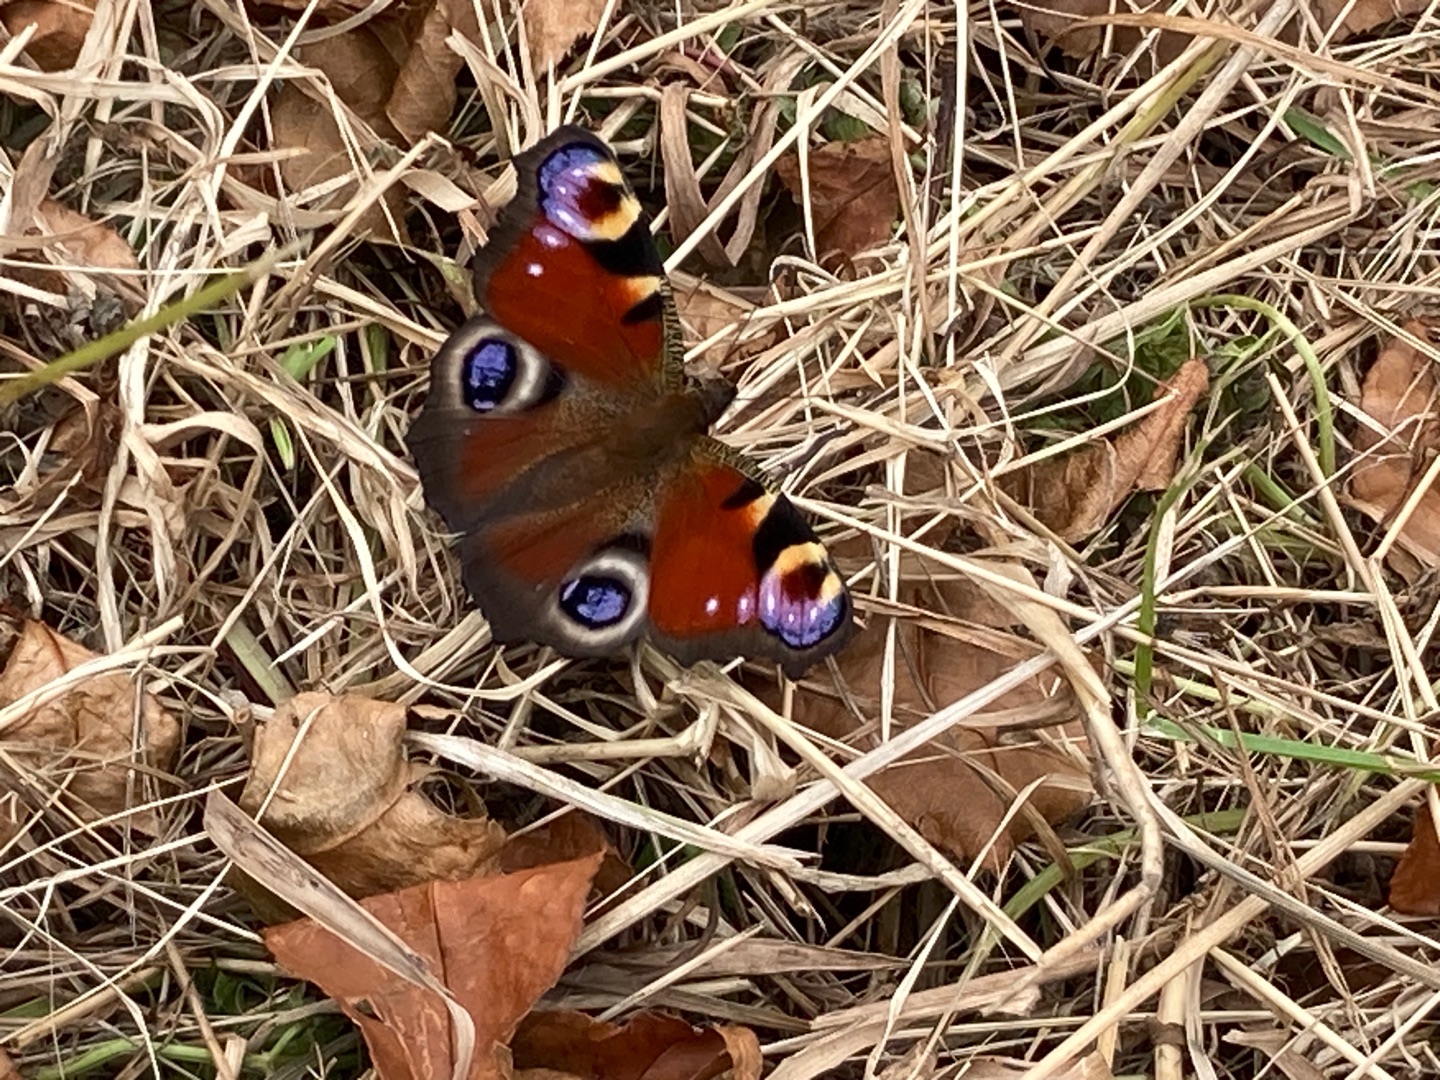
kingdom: Animalia
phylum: Arthropoda
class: Insecta
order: Lepidoptera
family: Nymphalidae
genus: Aglais
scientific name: Aglais io
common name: Dagpåfugleøje
